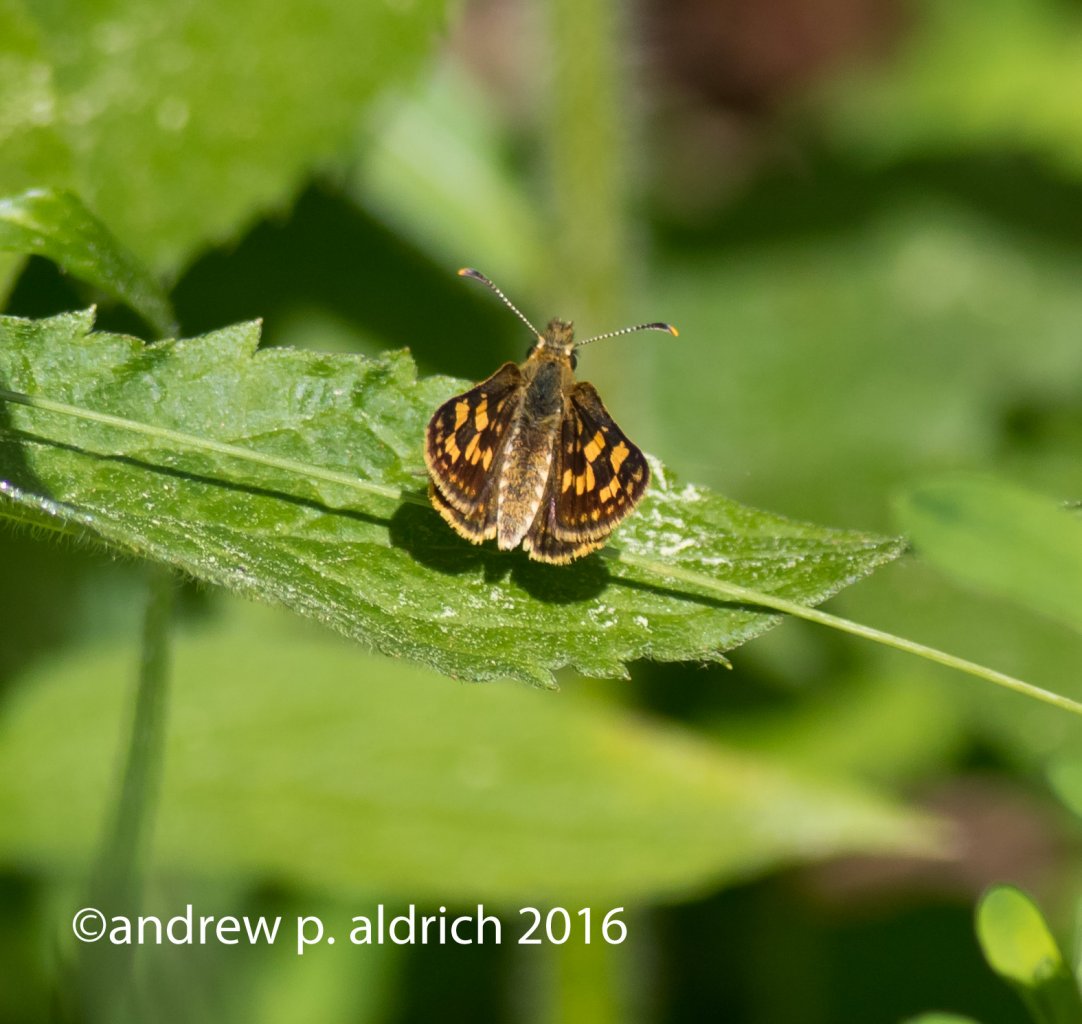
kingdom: Animalia
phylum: Arthropoda
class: Insecta
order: Lepidoptera
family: Hesperiidae
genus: Carterocephalus
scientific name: Carterocephalus palaemon
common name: Chequered Skipper
